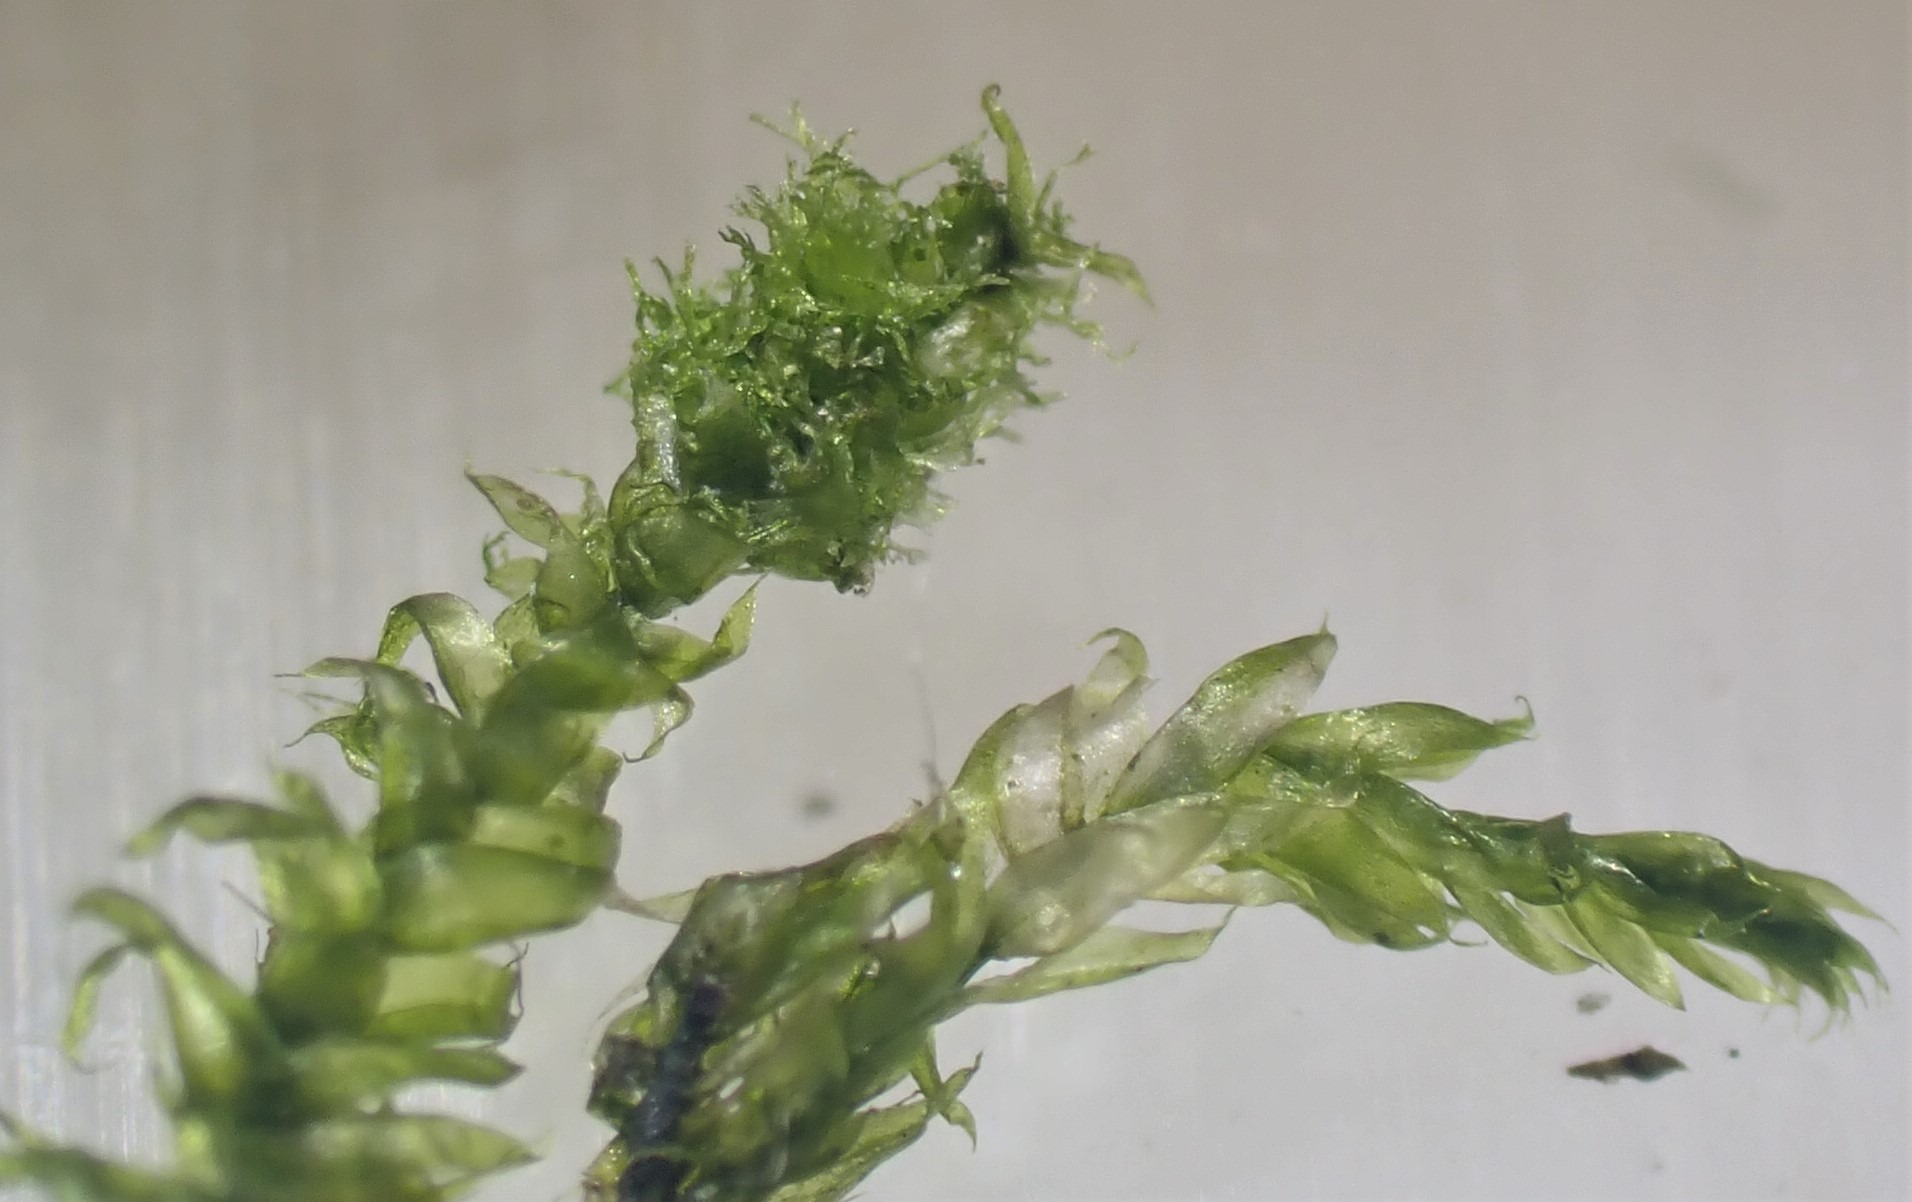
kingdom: Plantae
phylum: Bryophyta
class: Bryopsida
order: Hypnales
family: Plagiotheciaceae
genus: Pseudotaxiphyllum
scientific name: Pseudotaxiphyllum elegans
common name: Skinnende ynglegren
